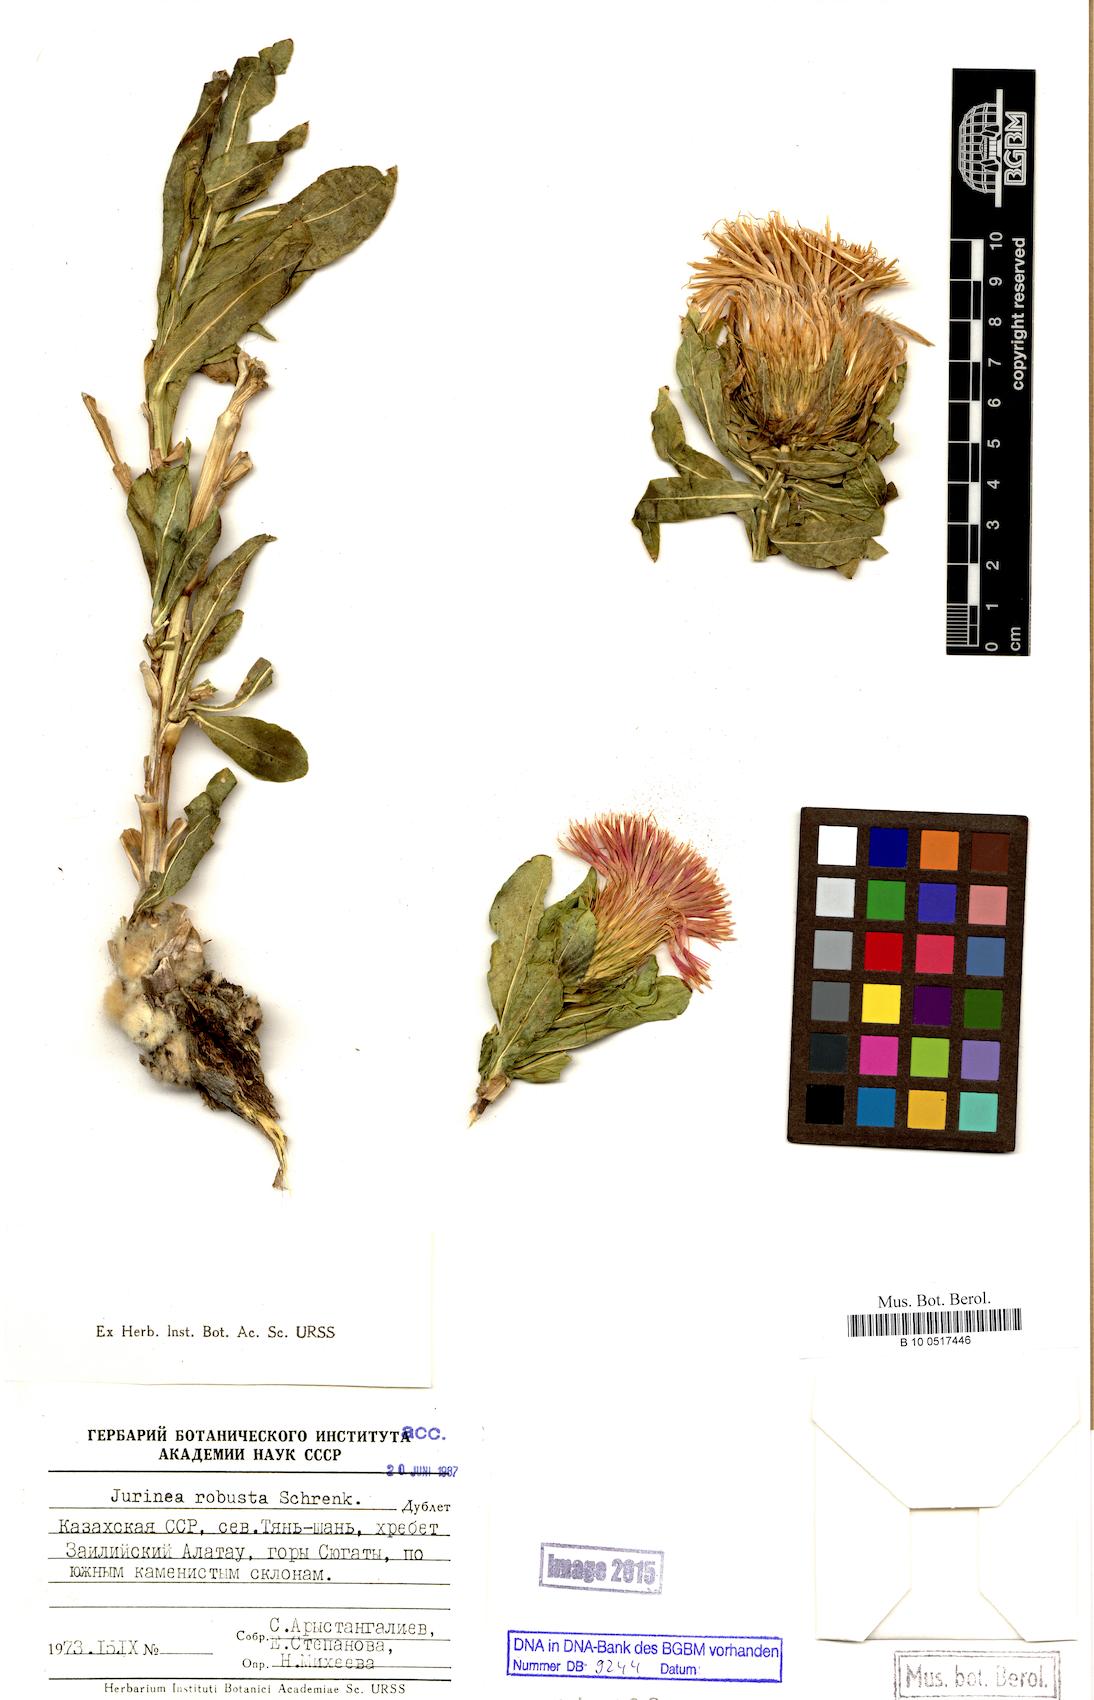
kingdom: Plantae
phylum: Tracheophyta
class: Magnoliopsida
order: Asterales
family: Asteraceae
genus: Jurinea
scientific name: Jurinea robusta
